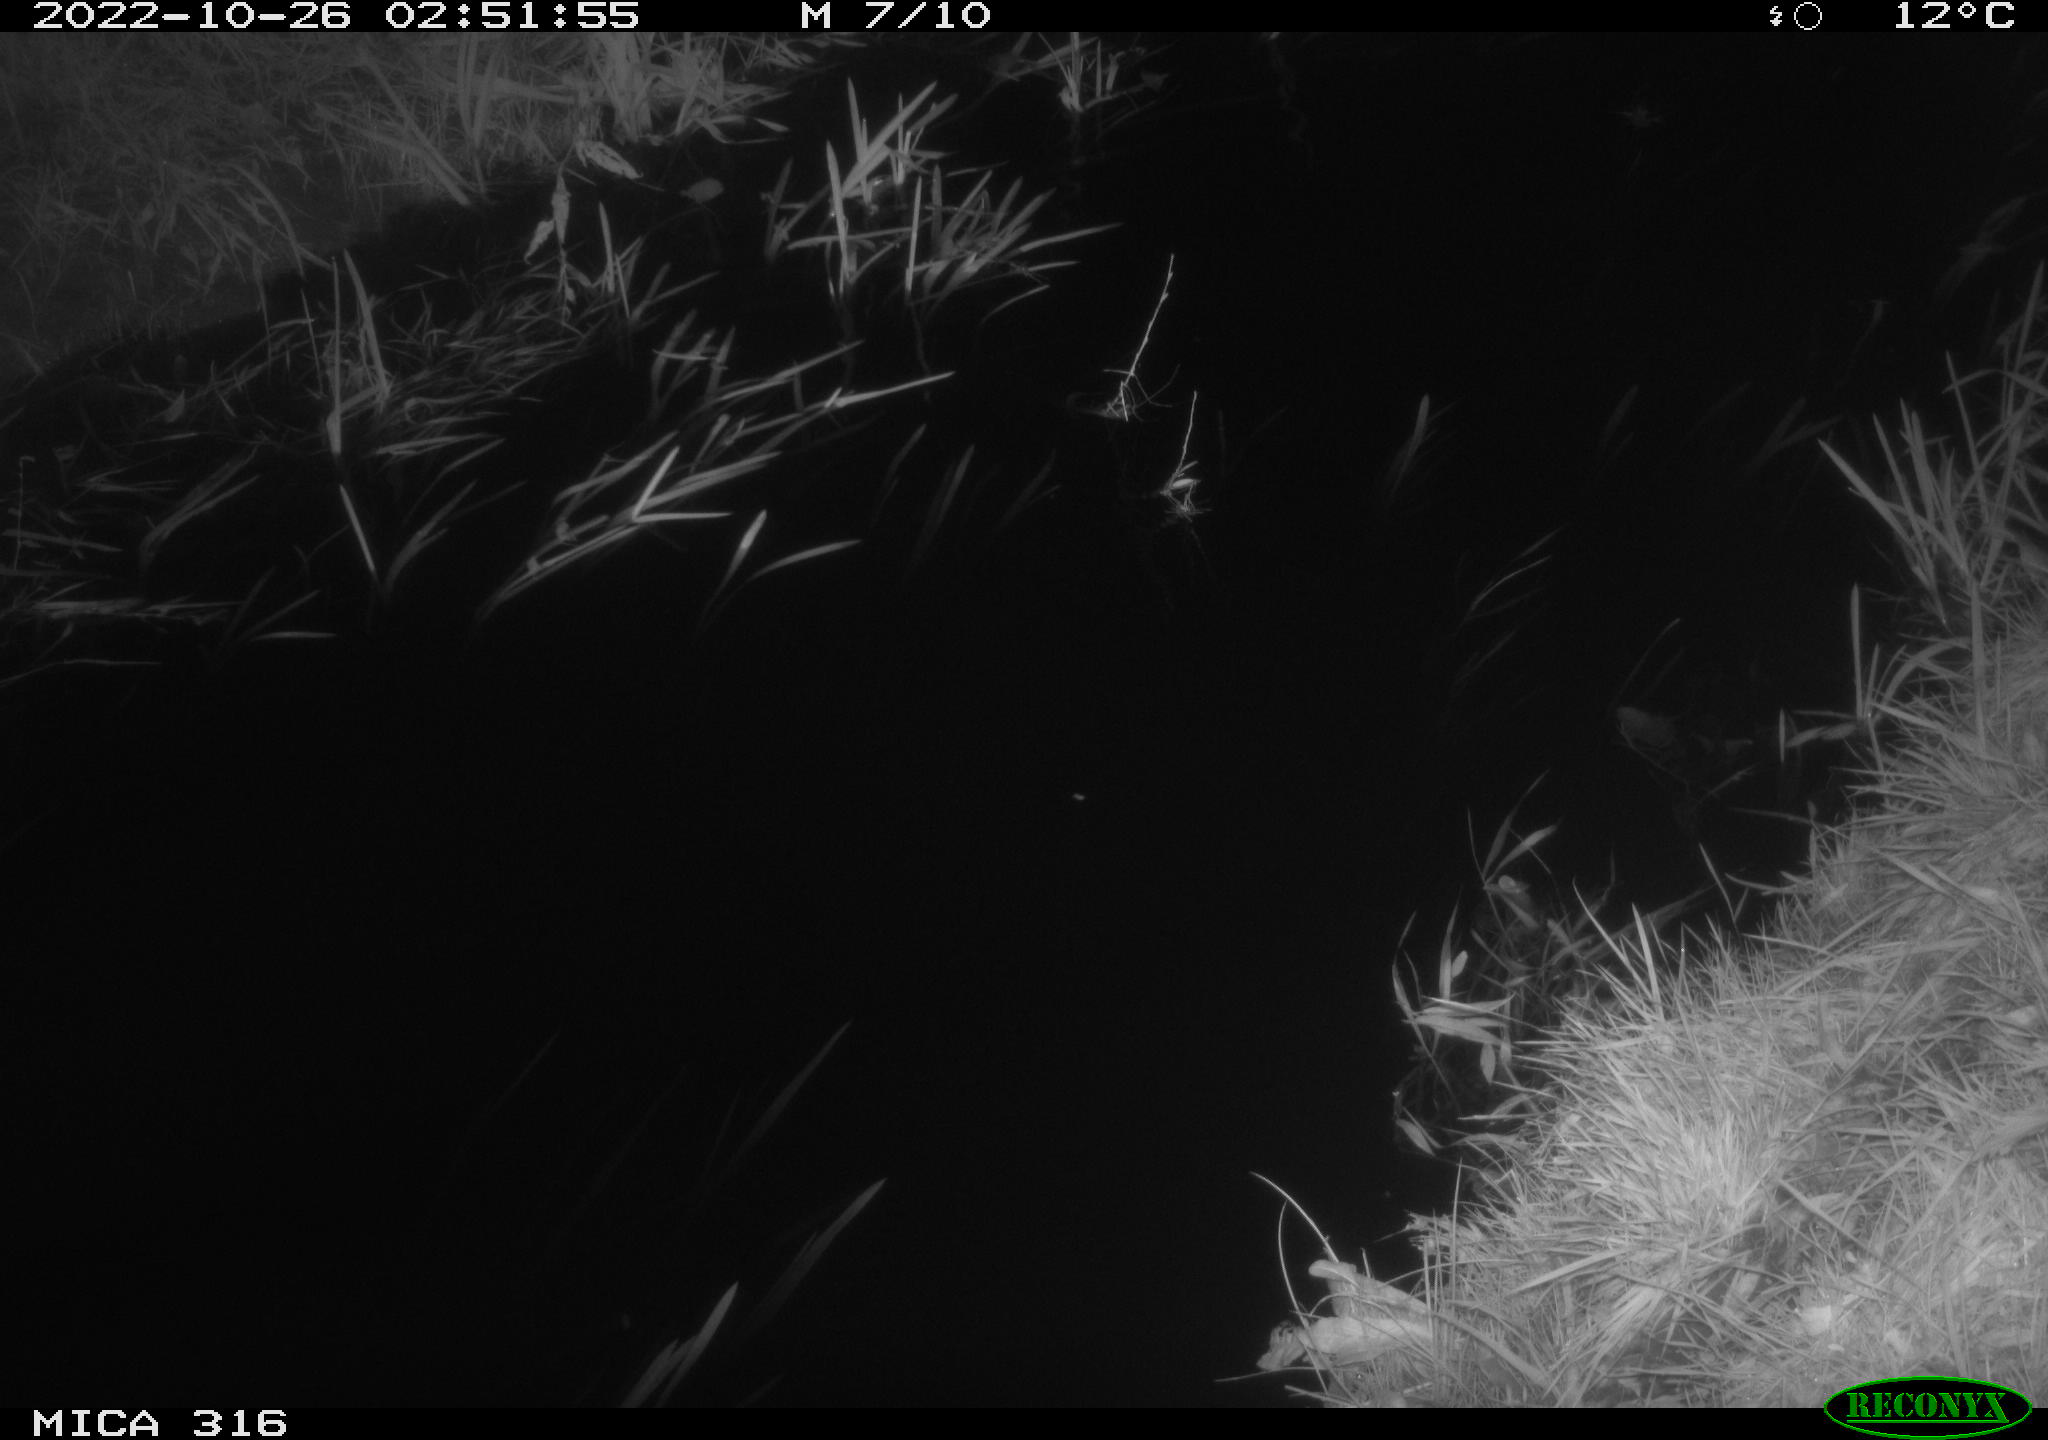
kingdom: Animalia
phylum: Chordata
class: Mammalia
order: Rodentia
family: Muridae
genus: Rattus
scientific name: Rattus norvegicus
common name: Brown rat
